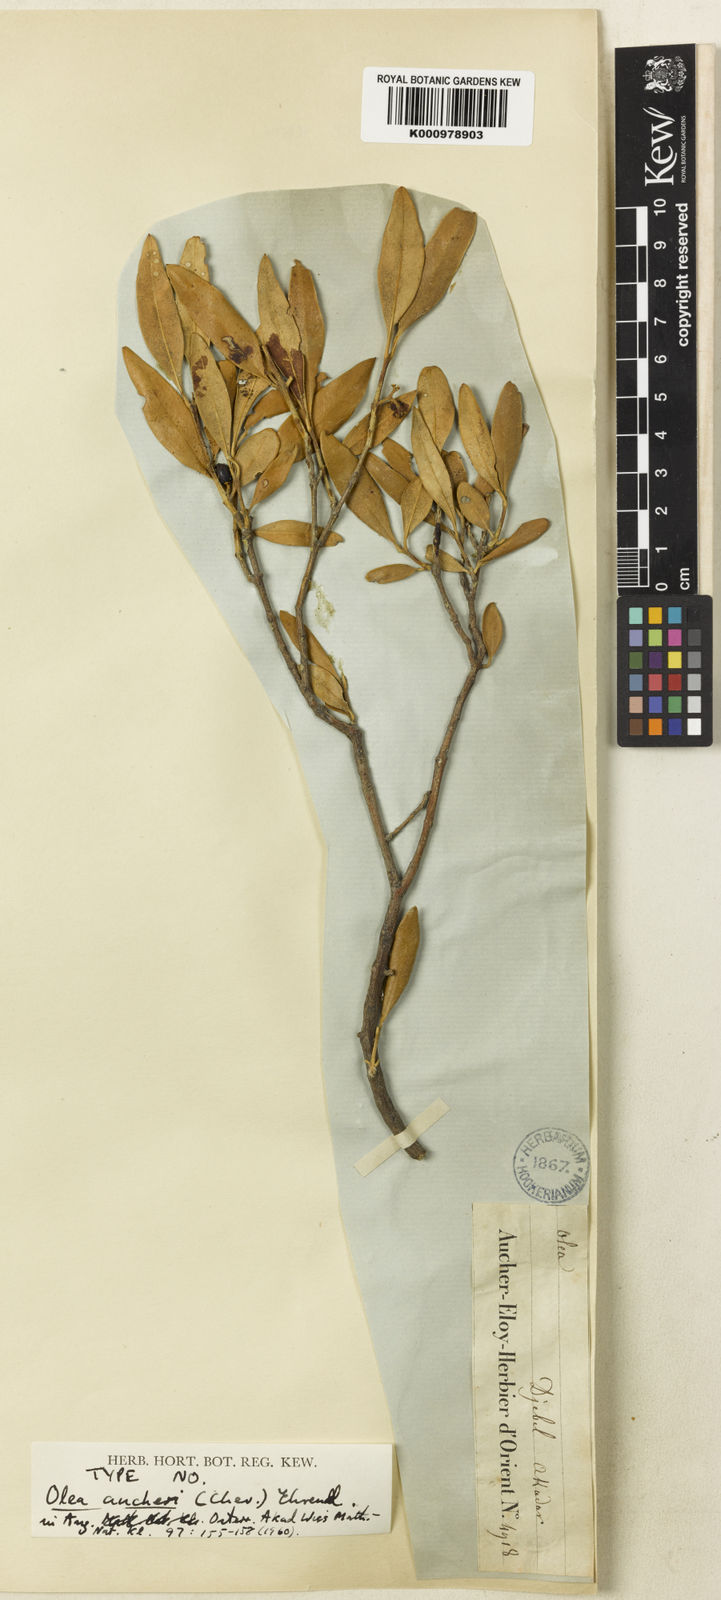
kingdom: Plantae
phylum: Tracheophyta
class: Magnoliopsida
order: Lamiales
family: Oleaceae
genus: Olea
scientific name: Olea europaea
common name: Olive
